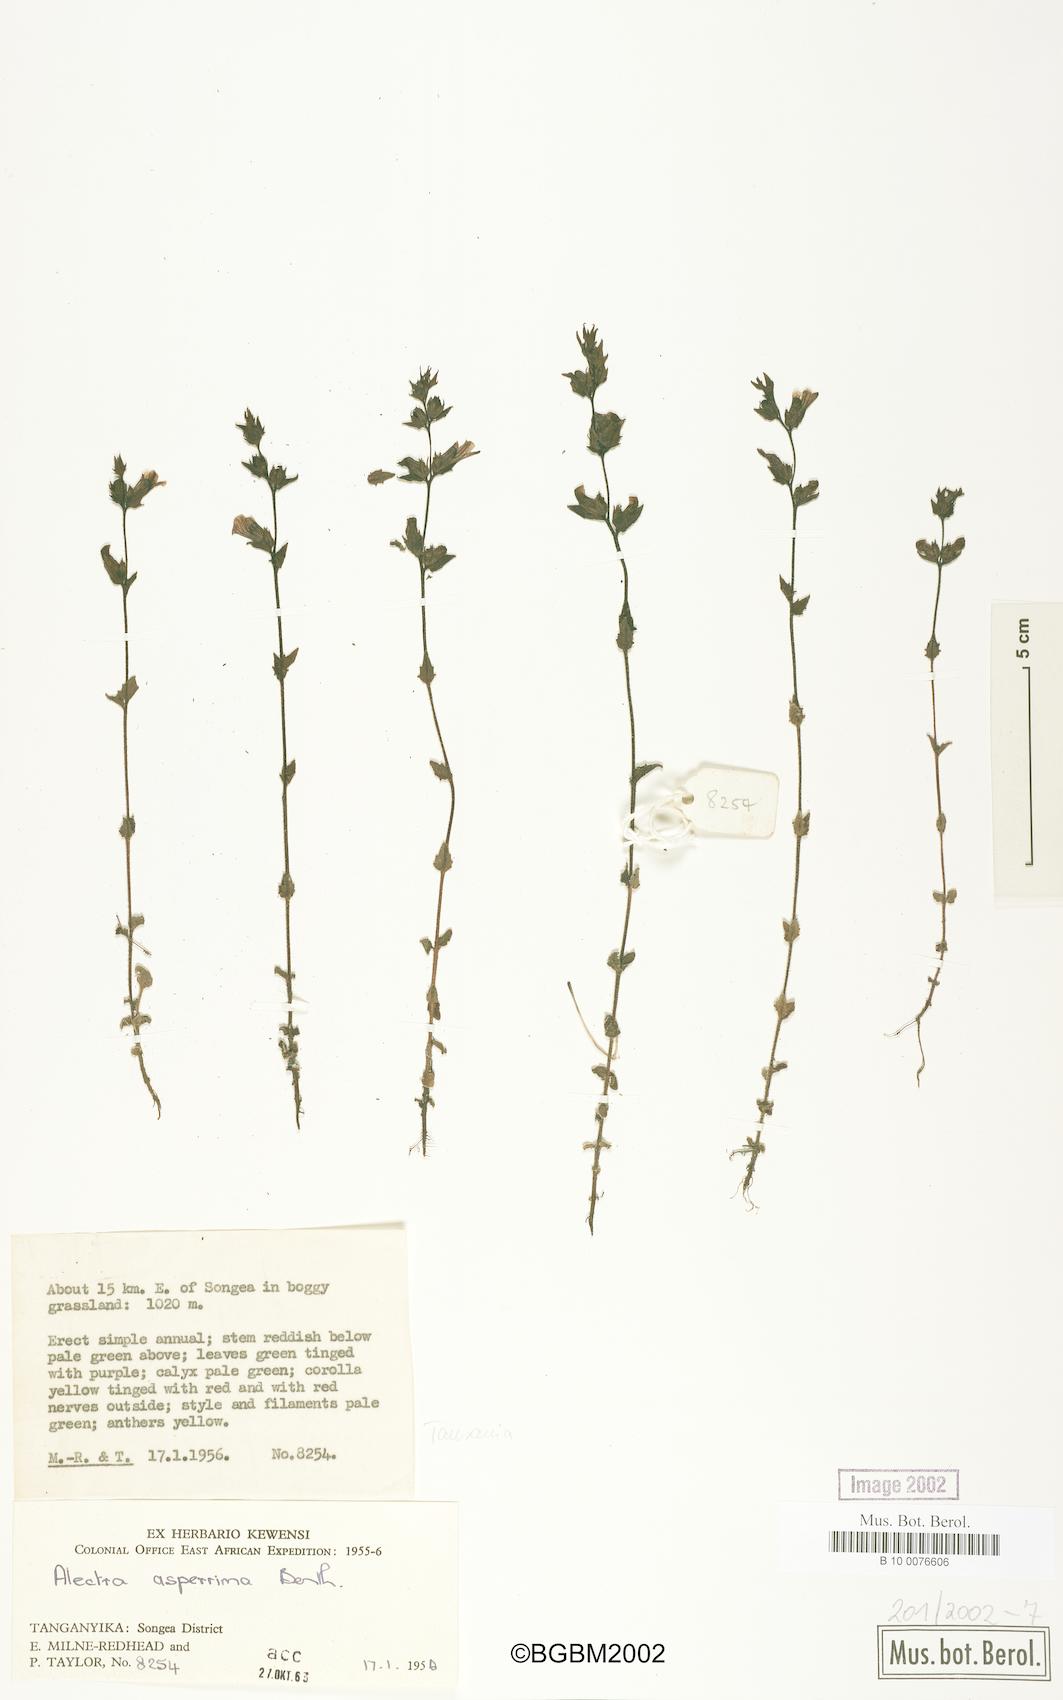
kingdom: Plantae
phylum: Tracheophyta
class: Magnoliopsida
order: Lamiales
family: Orobanchaceae
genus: Alectra
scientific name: Alectra asperrima
